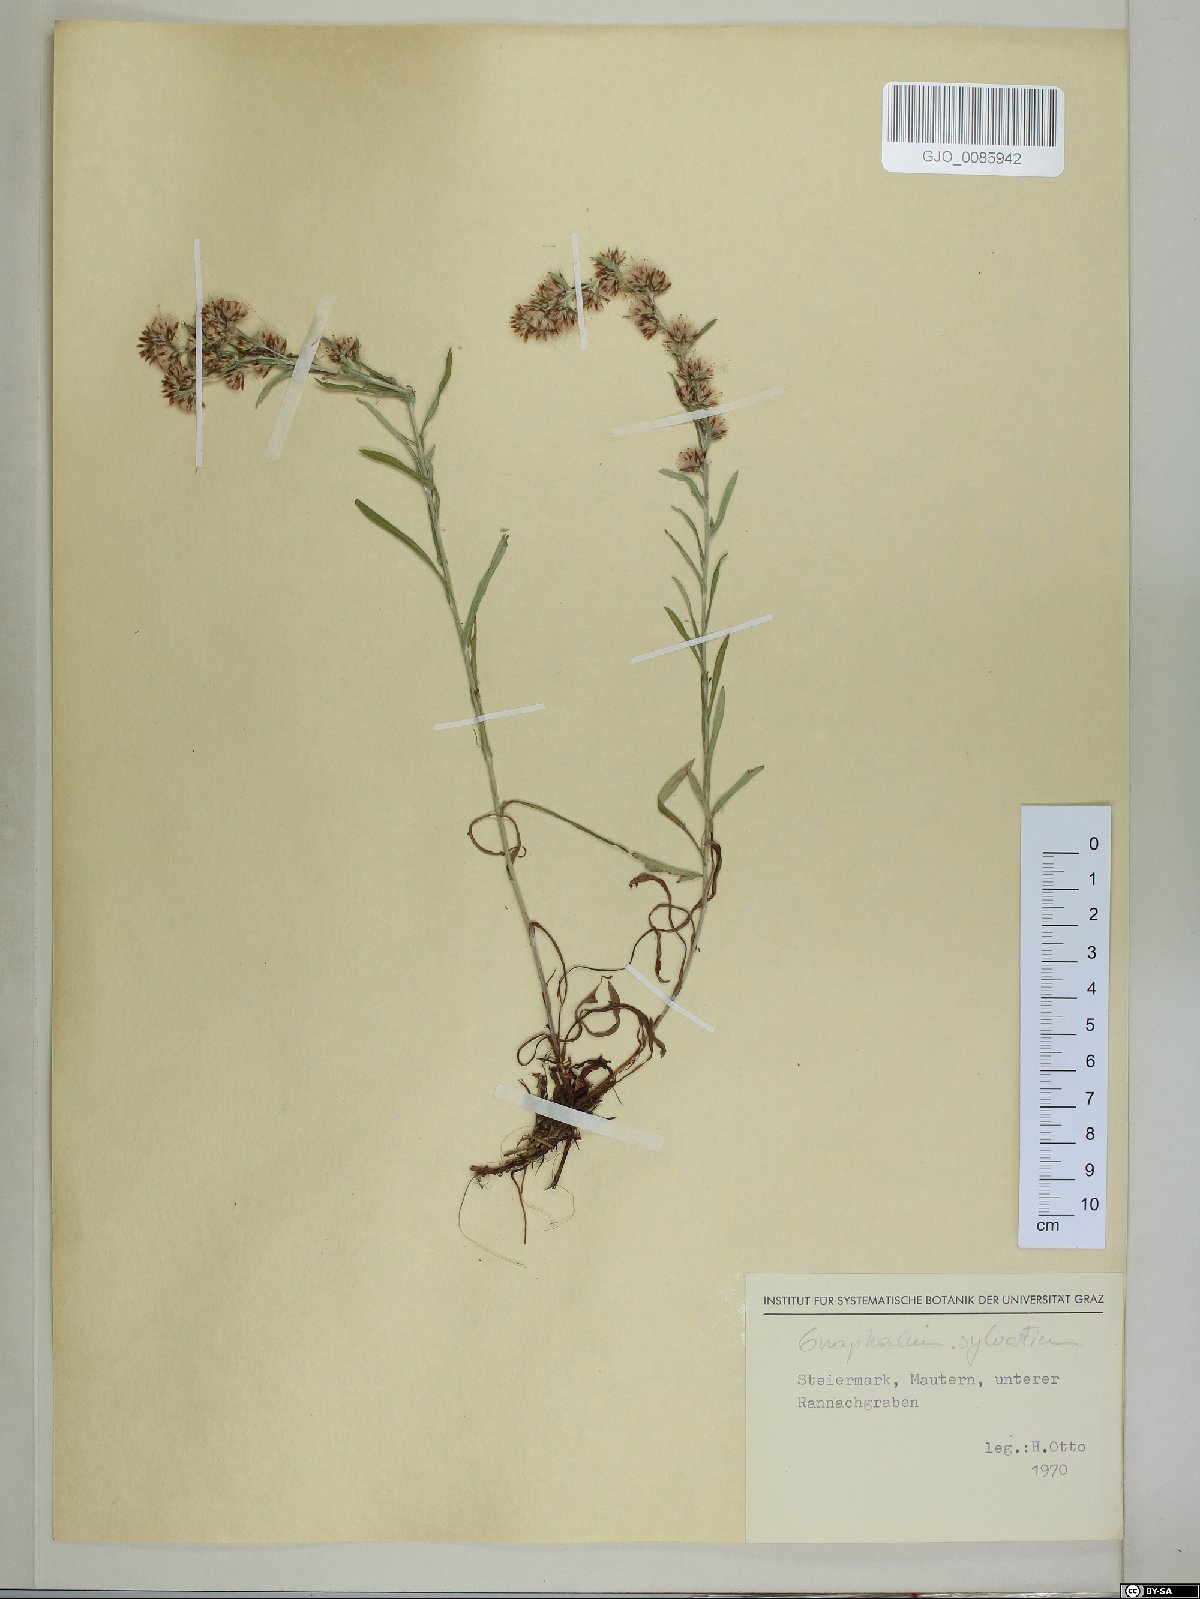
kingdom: Plantae
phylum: Tracheophyta
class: Magnoliopsida
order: Asterales
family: Asteraceae
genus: Omalotheca
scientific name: Omalotheca sylvatica
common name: Heath cudweed
